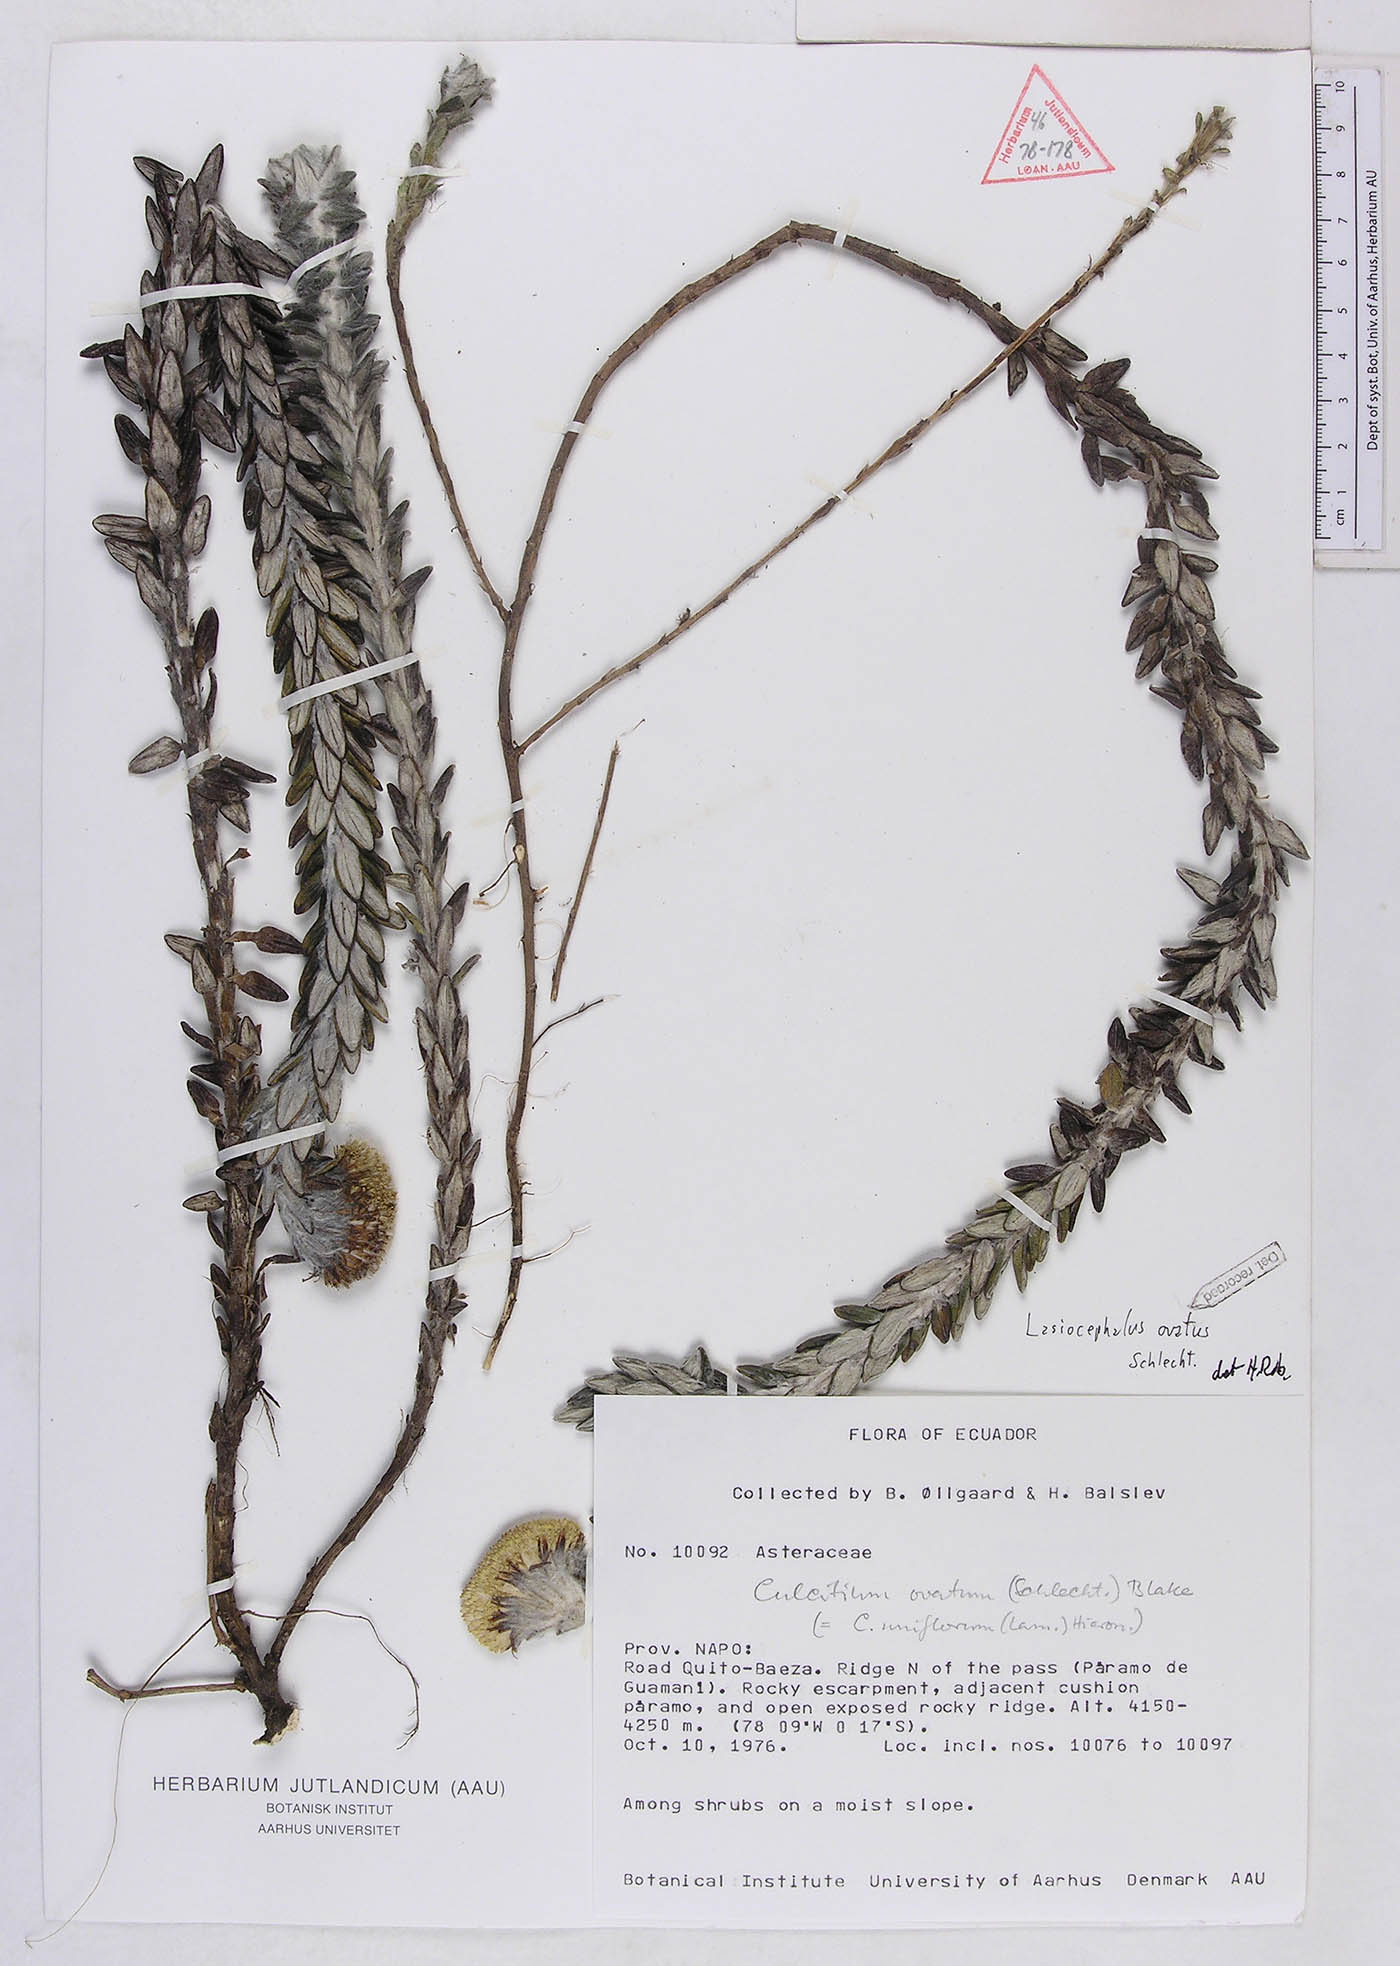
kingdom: Plantae
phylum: Tracheophyta
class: Magnoliopsida
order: Asterales
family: Asteraceae
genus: Lasiocephalus
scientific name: Lasiocephalus ovatus
